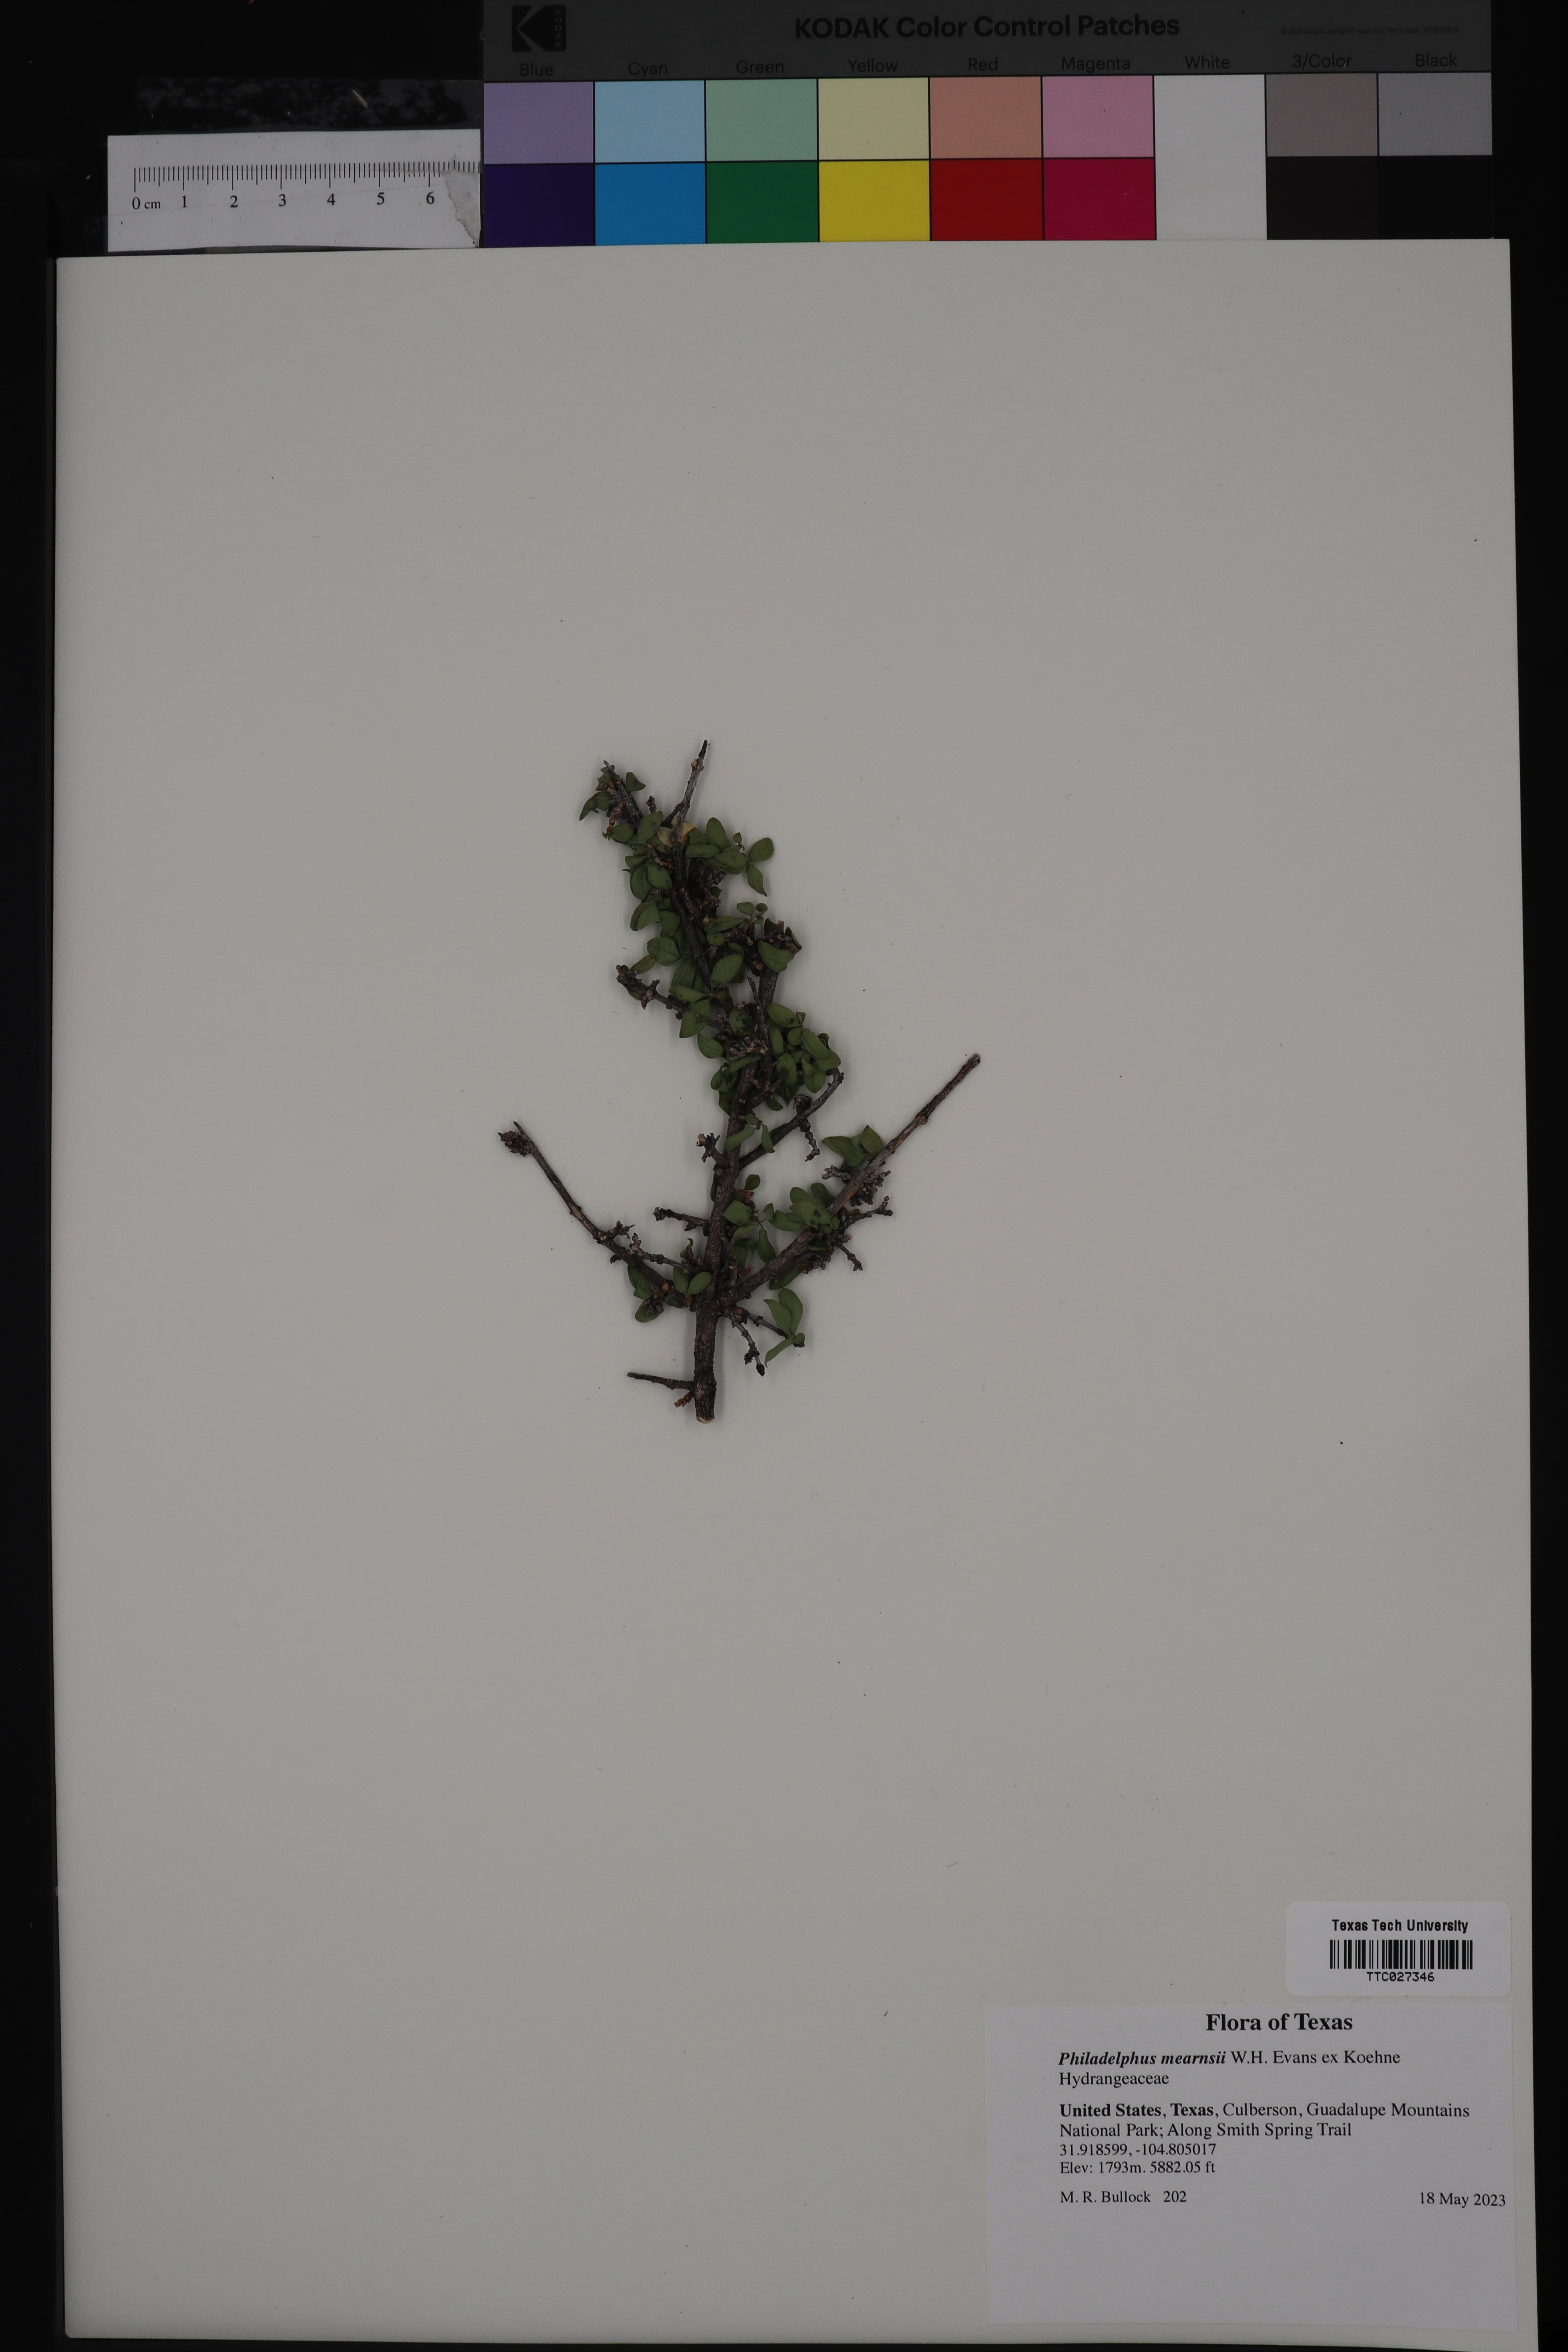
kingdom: Plantae
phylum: Tracheophyta
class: Magnoliopsida
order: Cornales
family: Hydrangeaceae
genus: Philadelphus
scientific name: Philadelphus mearnsii
